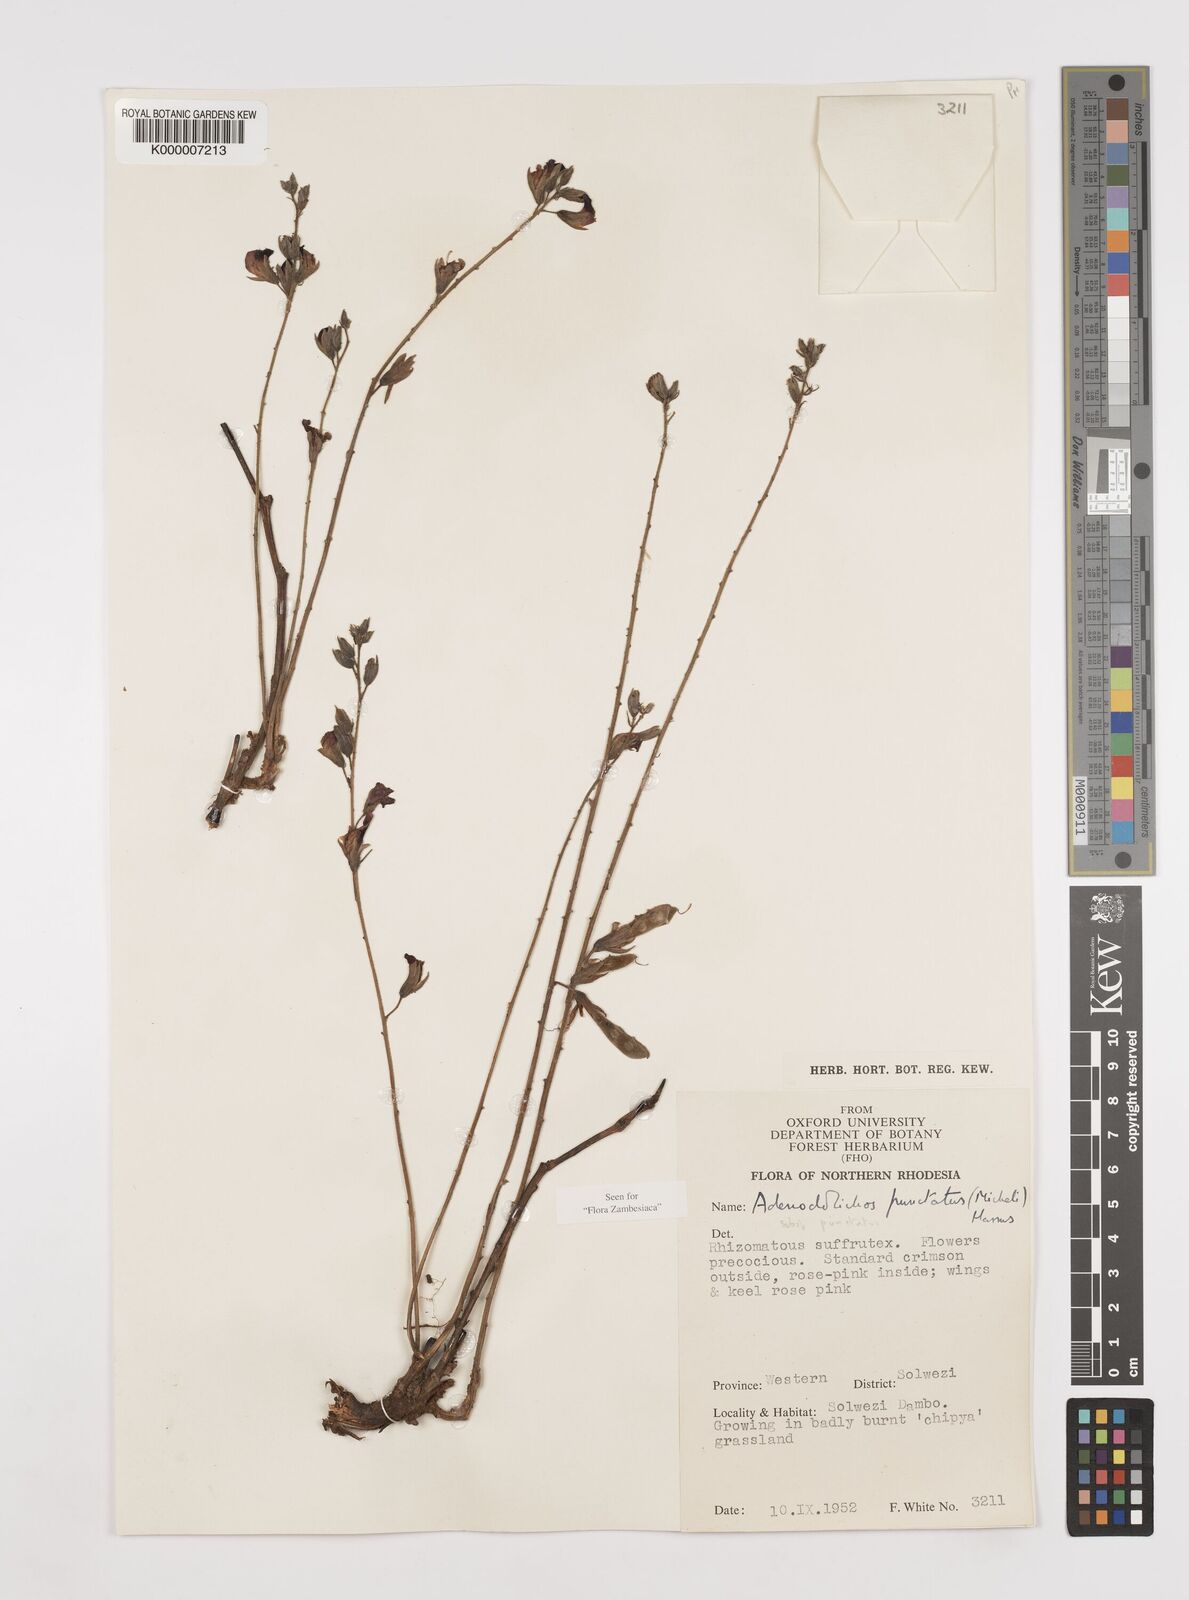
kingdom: Plantae
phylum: Tracheophyta
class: Magnoliopsida
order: Fabales
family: Fabaceae
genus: Adenodolichos
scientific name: Adenodolichos punctatus
